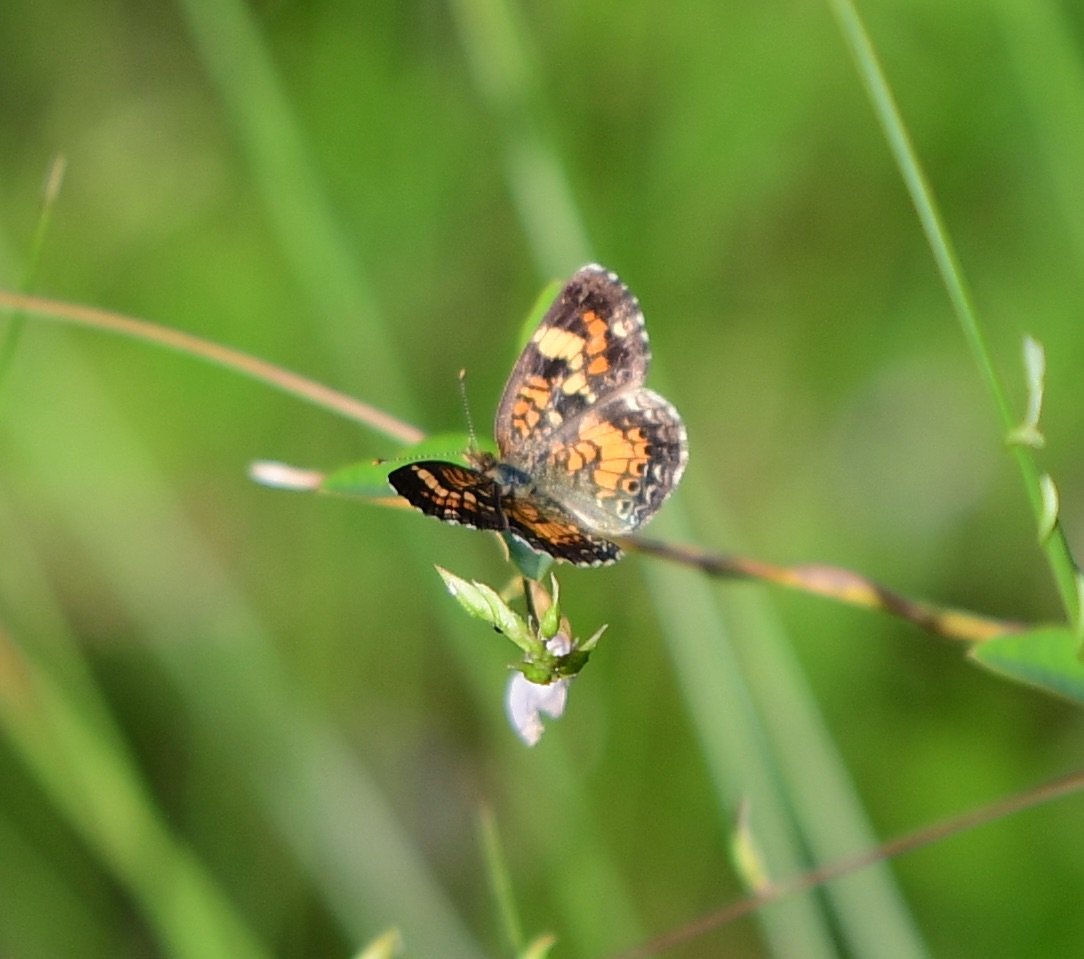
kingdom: Animalia
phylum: Arthropoda
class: Insecta
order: Lepidoptera
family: Nymphalidae
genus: Phyciodes
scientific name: Phyciodes phaon
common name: Phaon Crescent
